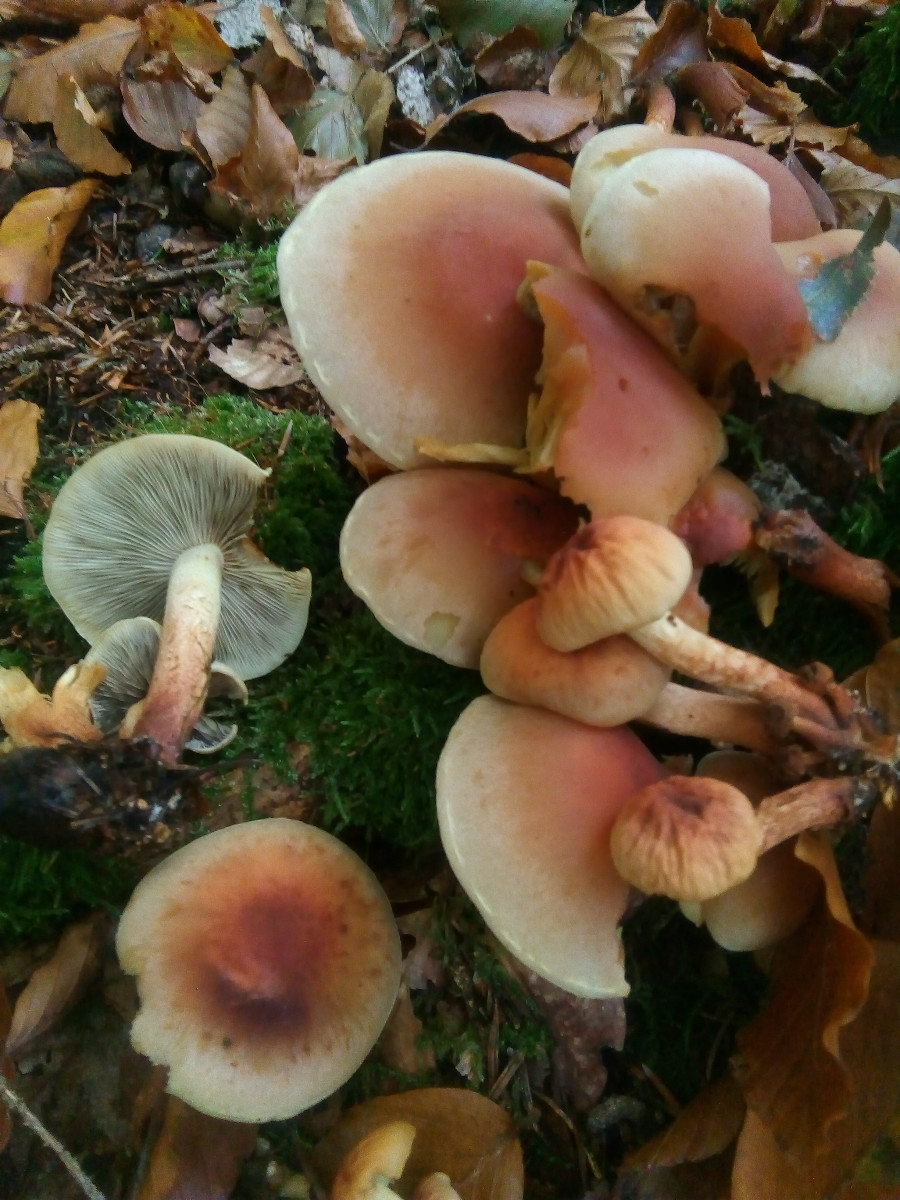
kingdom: Fungi
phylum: Basidiomycota
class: Agaricomycetes
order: Agaricales
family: Strophariaceae
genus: Hypholoma
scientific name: Hypholoma lateritium
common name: teglrød svovlhat
